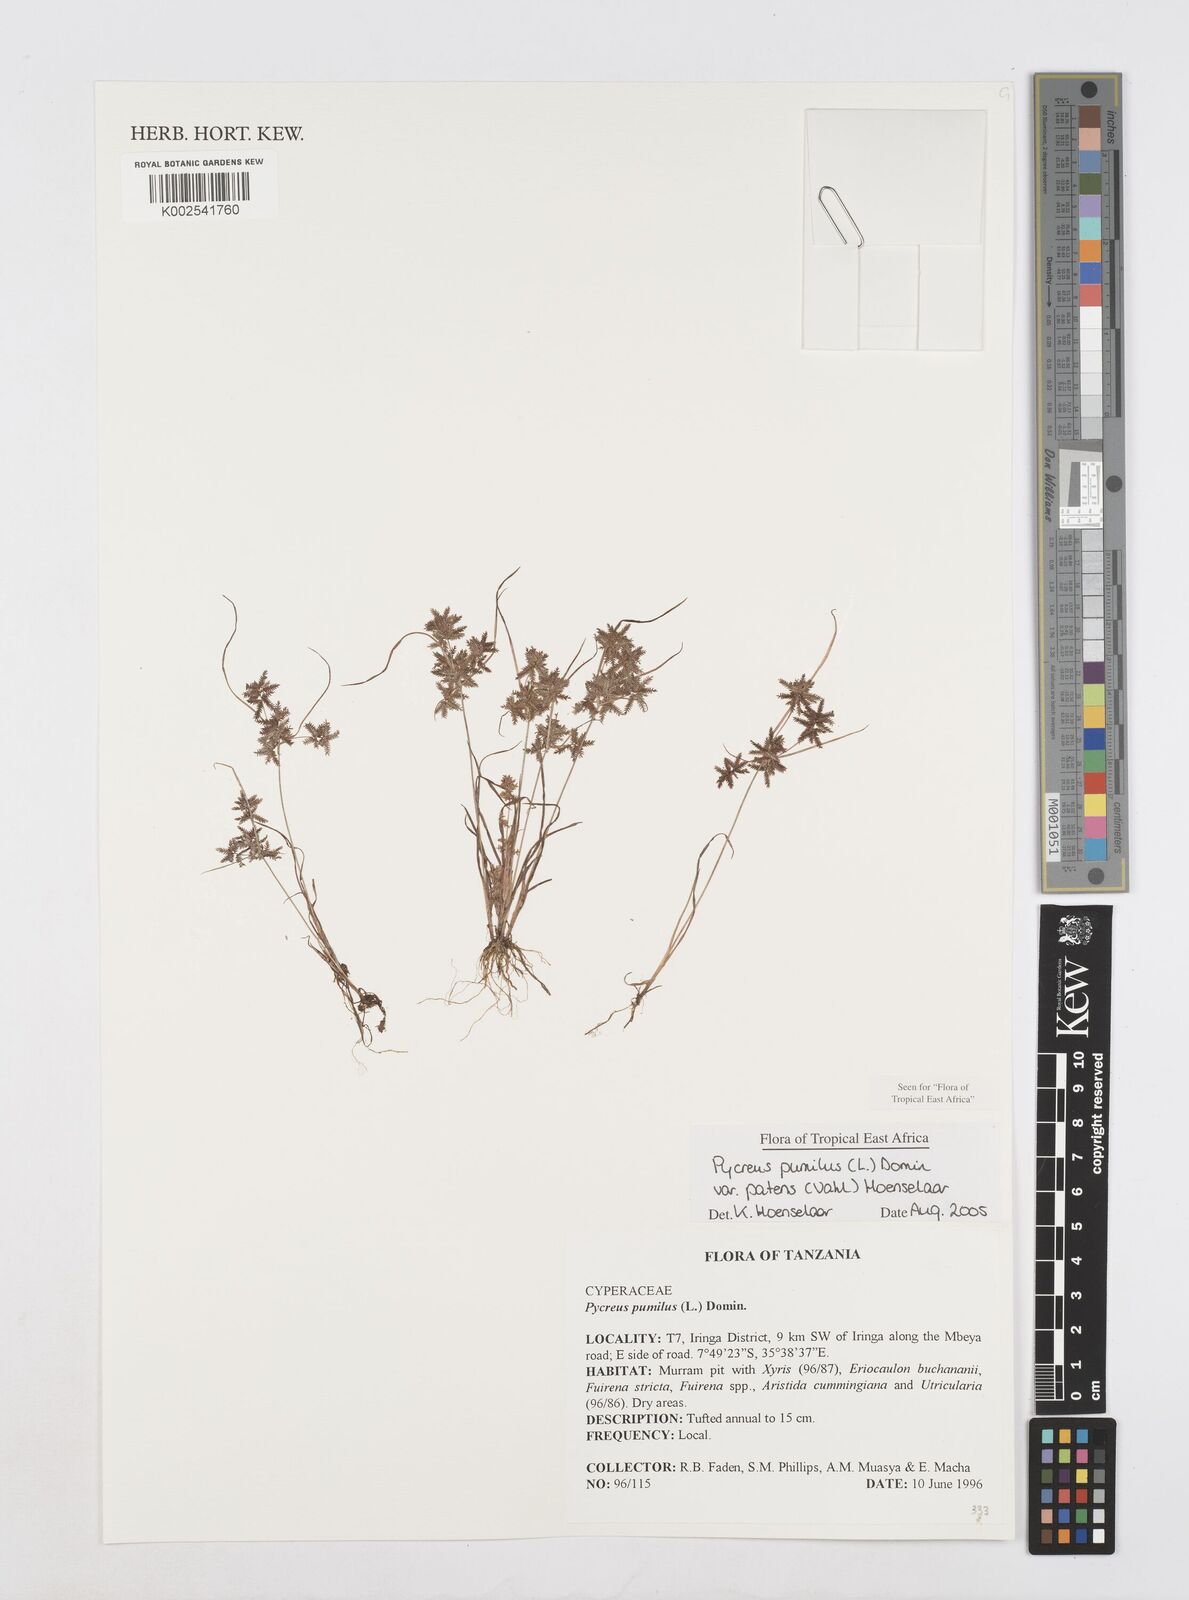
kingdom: Plantae
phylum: Tracheophyta
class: Liliopsida
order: Poales
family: Cyperaceae
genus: Cyperus
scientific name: Cyperus pumilus
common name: Low flatsedge
